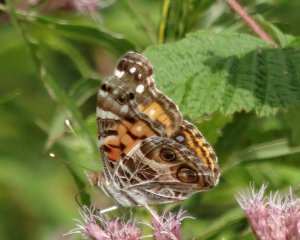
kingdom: Animalia
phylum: Arthropoda
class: Insecta
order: Lepidoptera
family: Nymphalidae
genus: Vanessa
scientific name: Vanessa virginiensis
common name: American Lady
